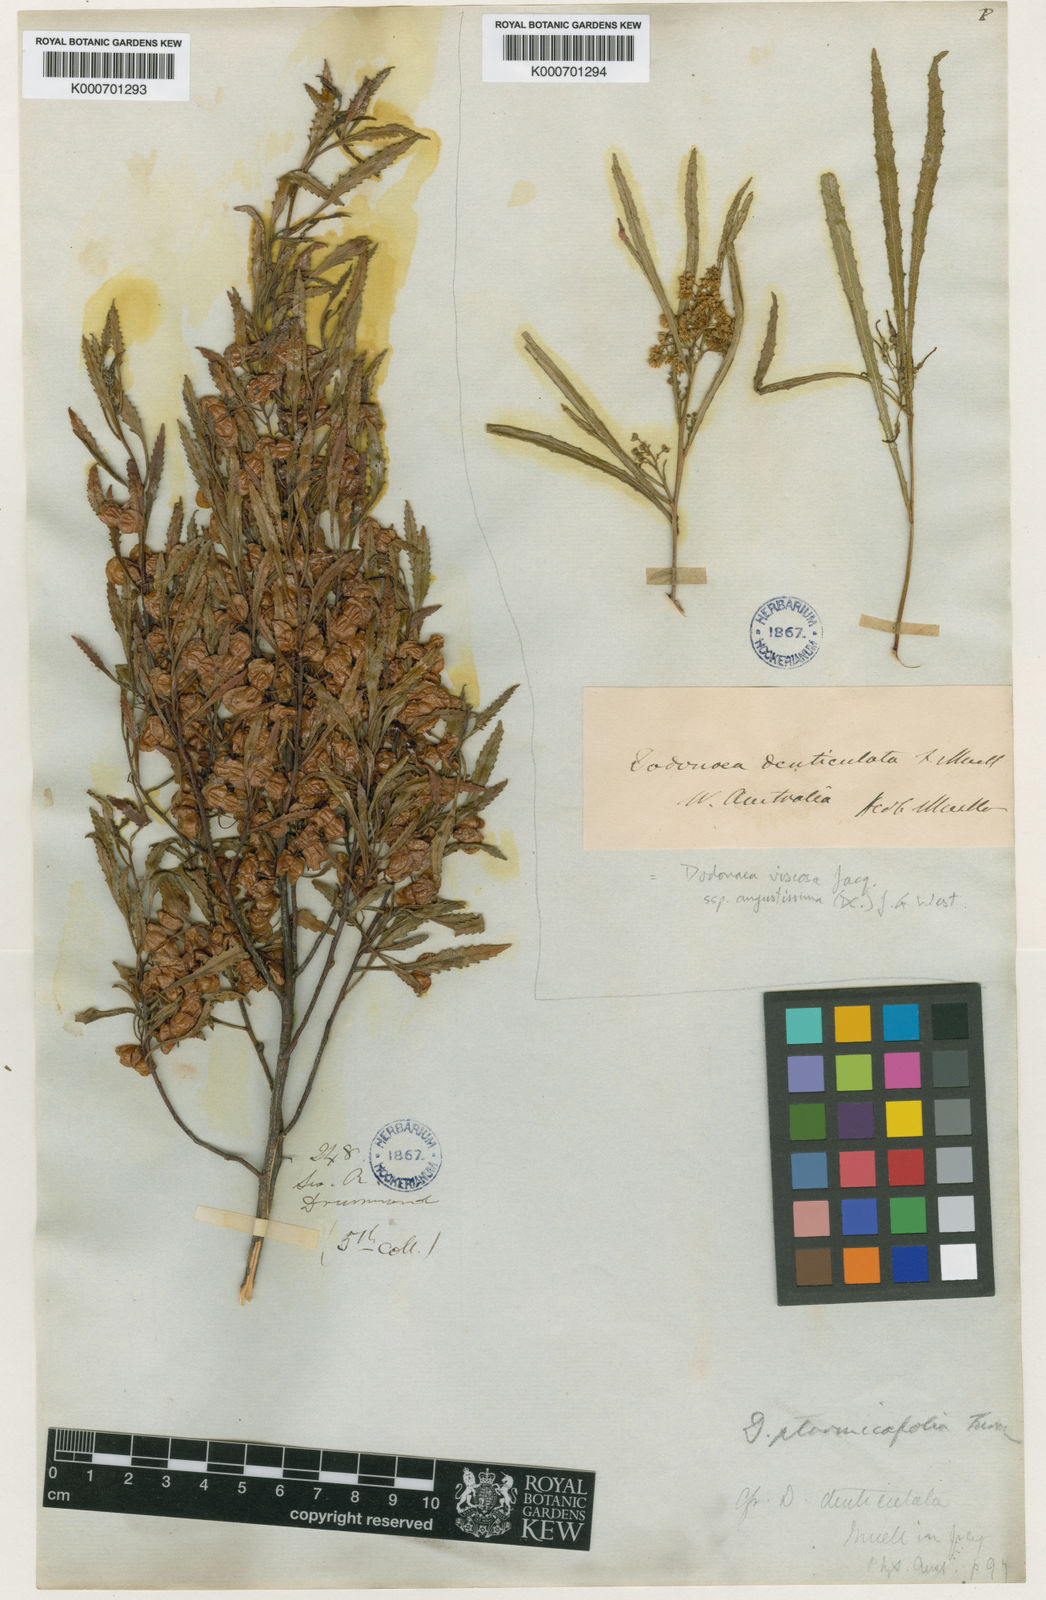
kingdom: Plantae
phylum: Tracheophyta
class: Magnoliopsida
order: Sapindales
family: Sapindaceae
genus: Dodonaea
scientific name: Dodonaea ptarmicifolia
